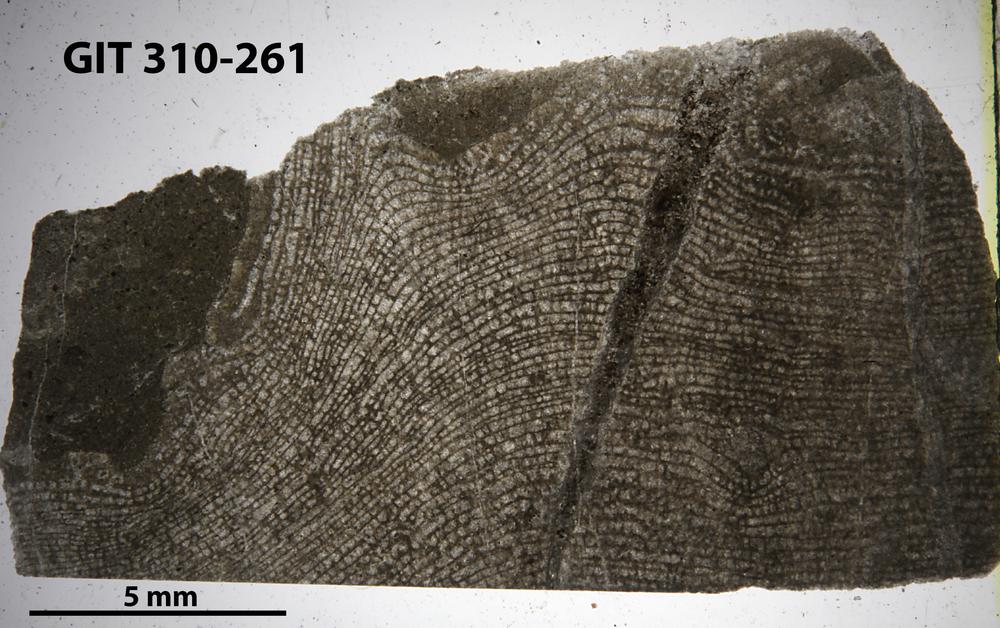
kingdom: Animalia
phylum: Porifera
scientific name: Porifera
